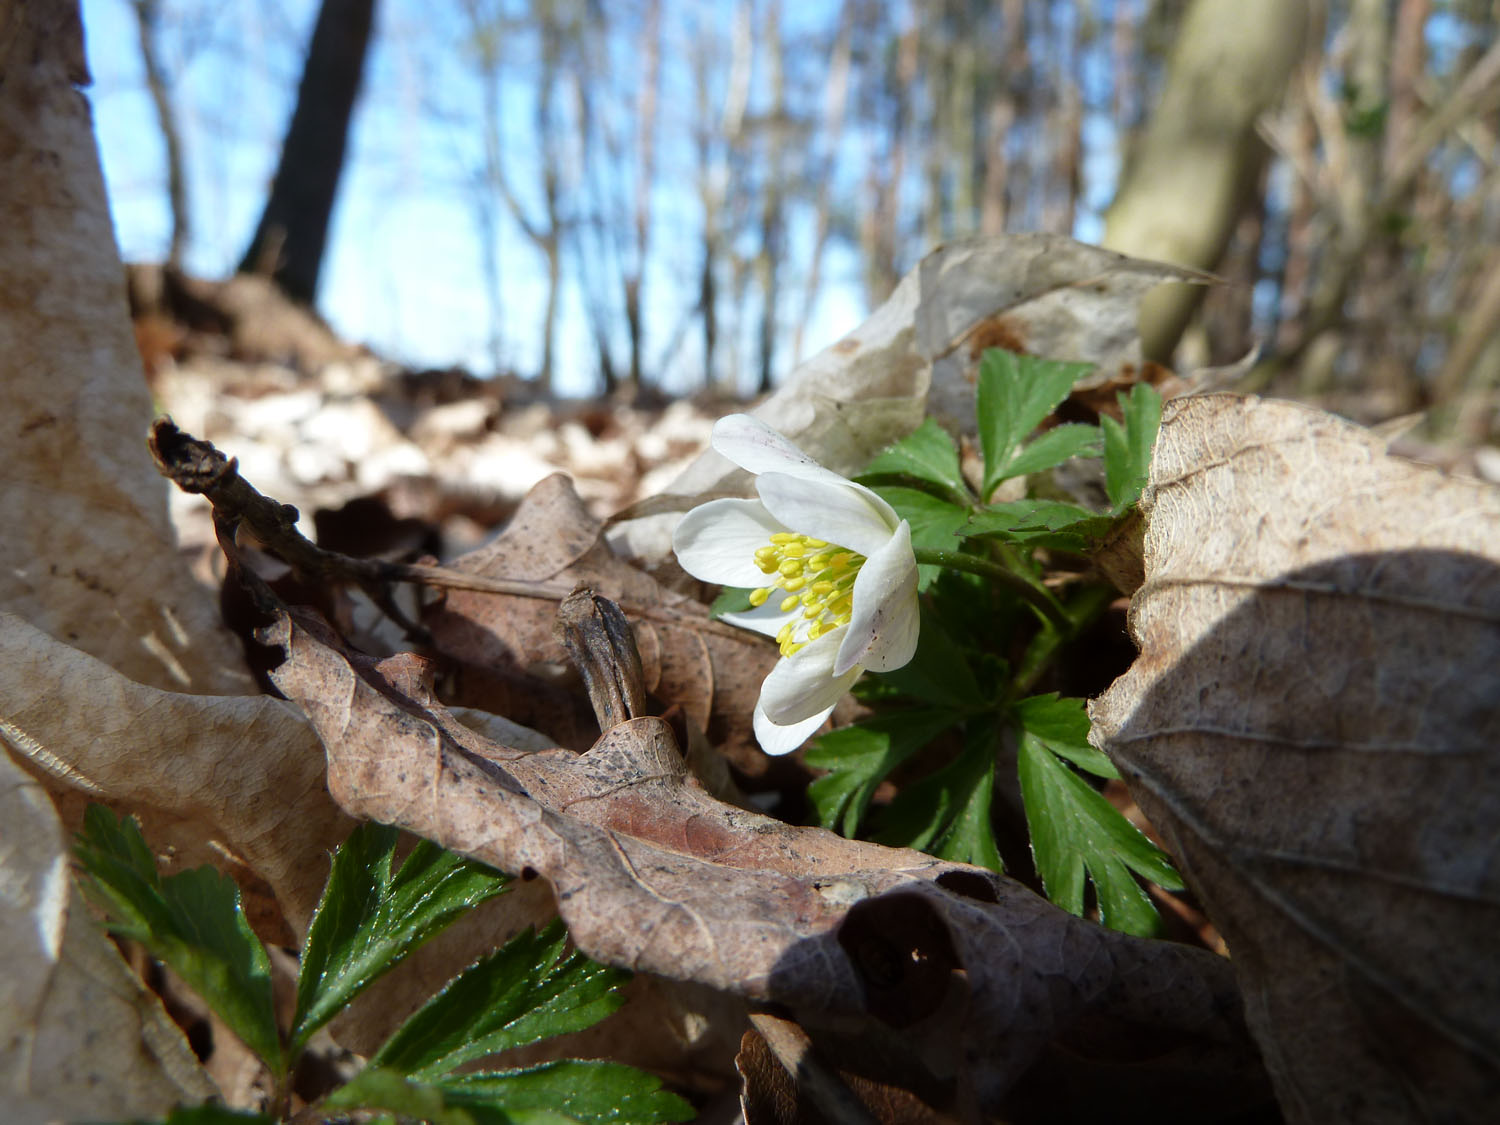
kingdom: Plantae
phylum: Tracheophyta
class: Magnoliopsida
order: Ranunculales
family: Ranunculaceae
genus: Anemone
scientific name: Anemone nemorosa
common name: Wood anemone
